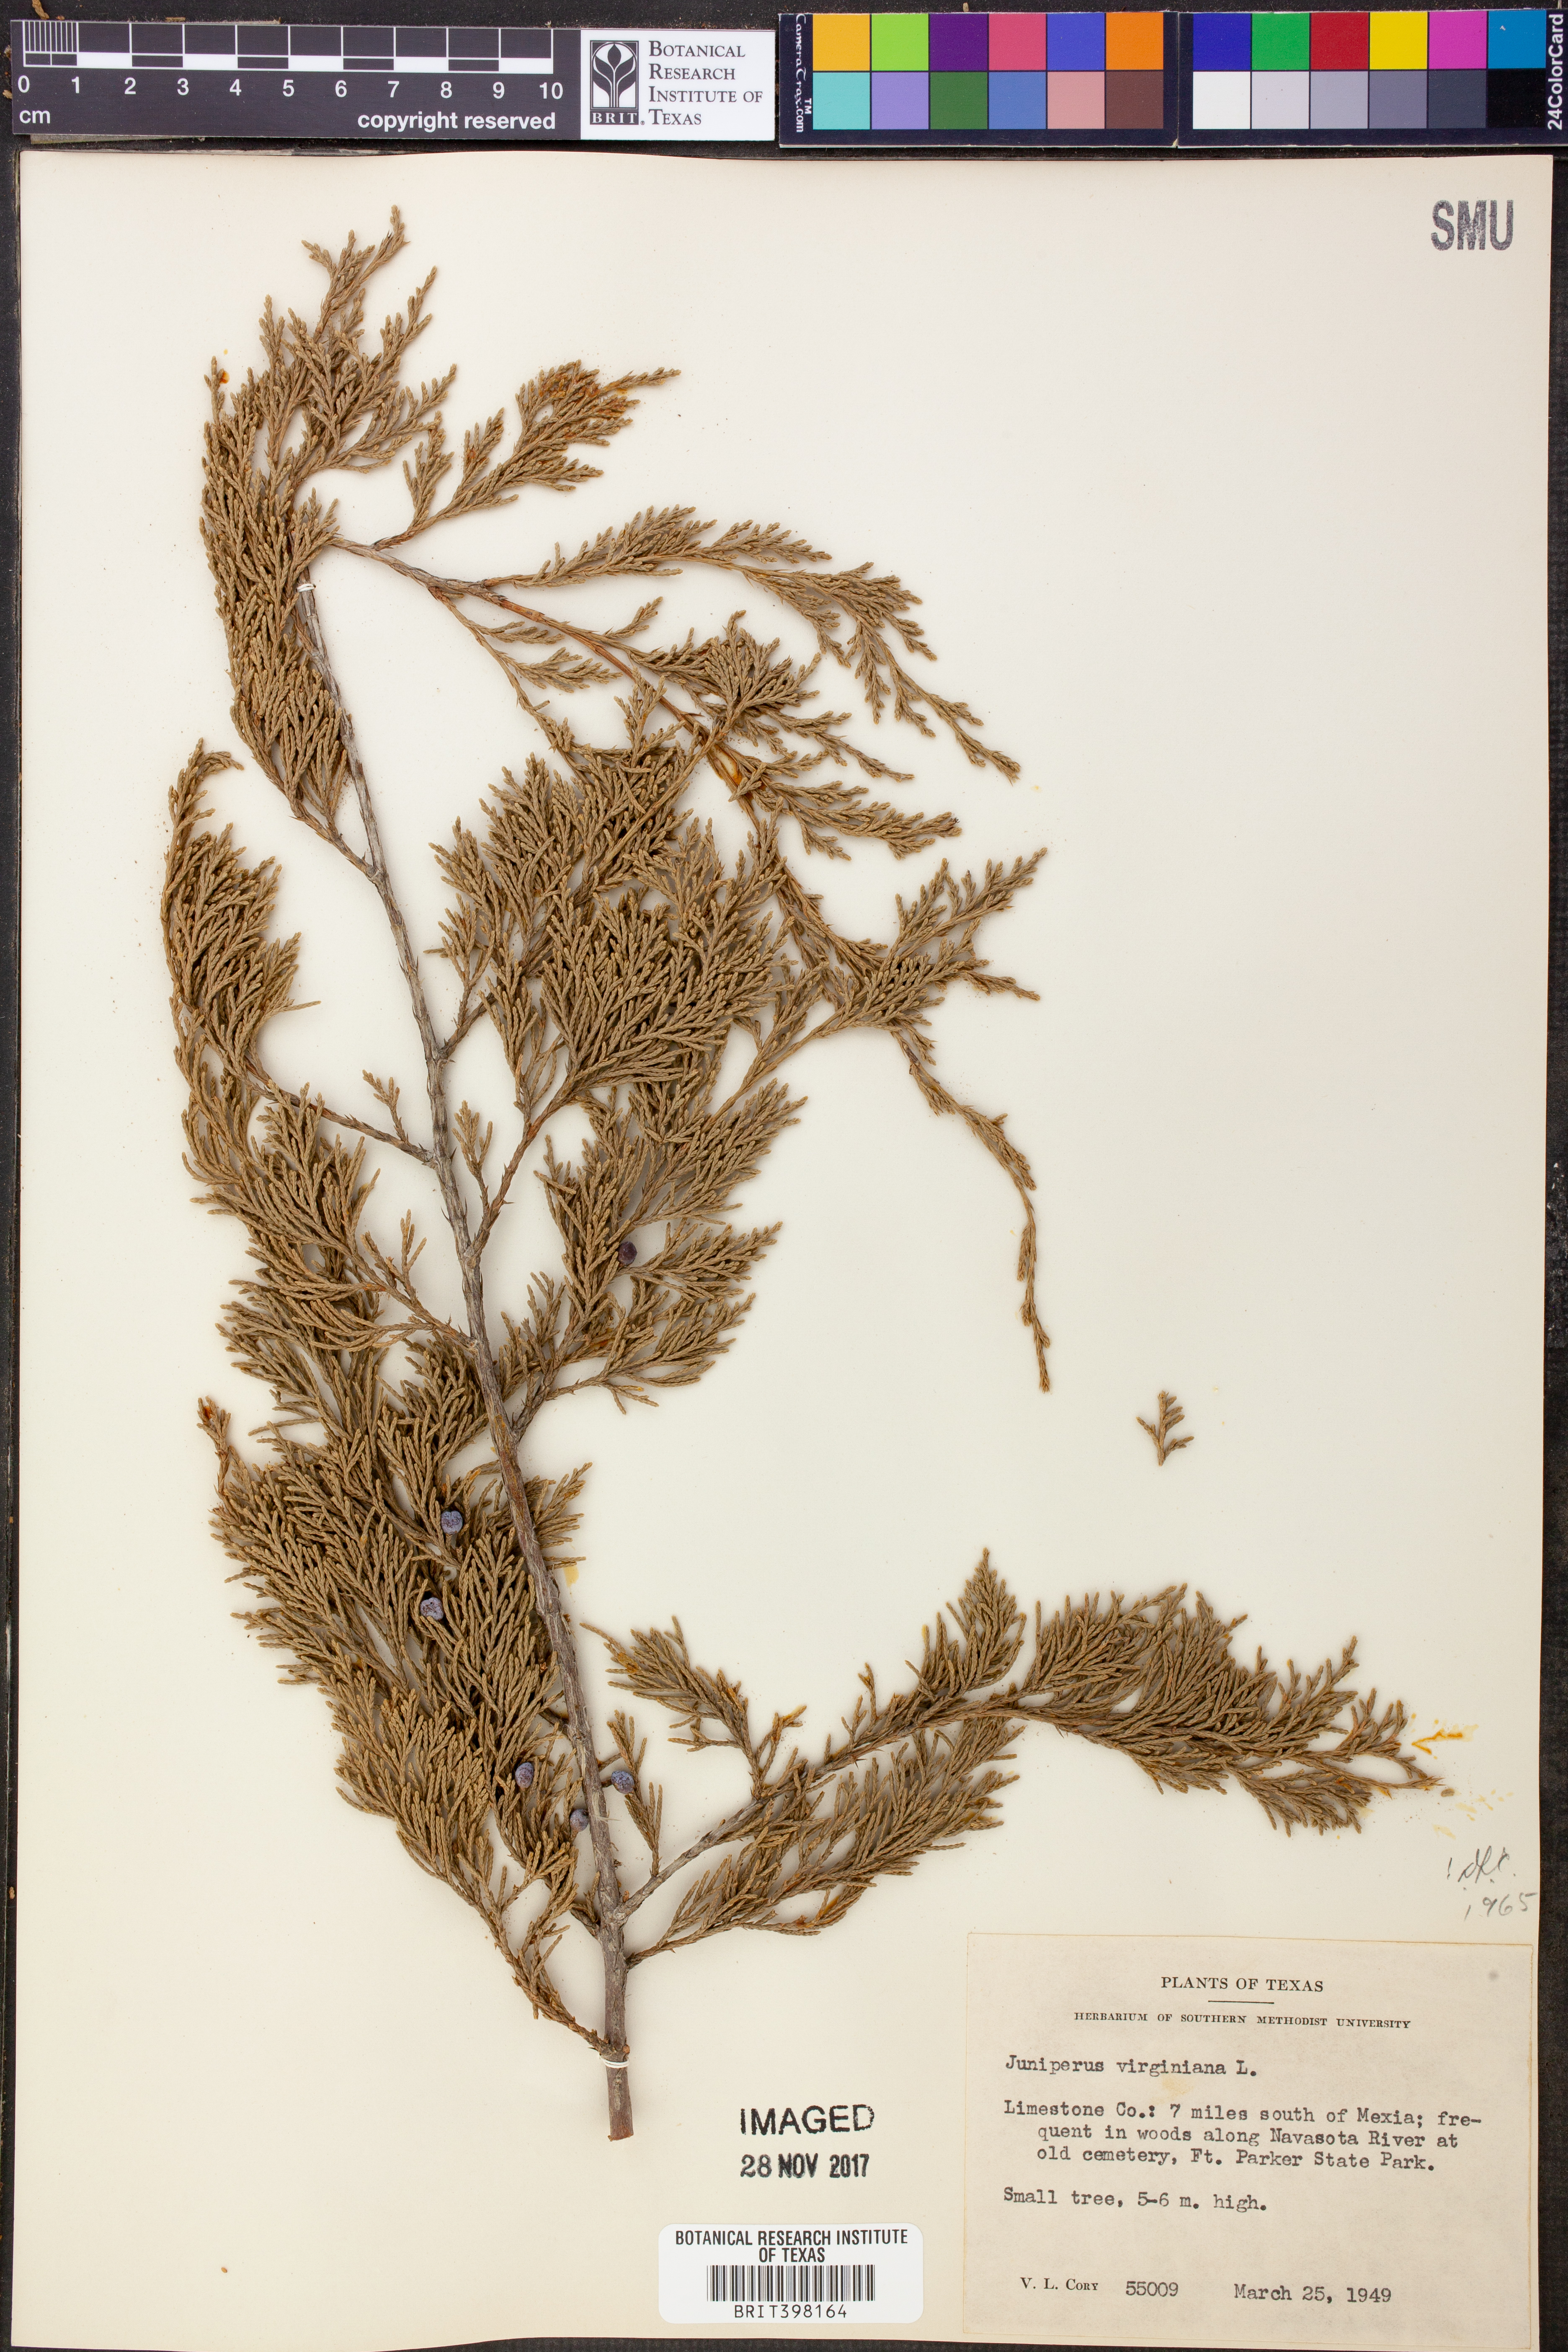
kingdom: Plantae
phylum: Tracheophyta
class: Pinopsida
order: Pinales
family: Cupressaceae
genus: Juniperus
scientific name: Juniperus virginiana
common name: Red juniper
